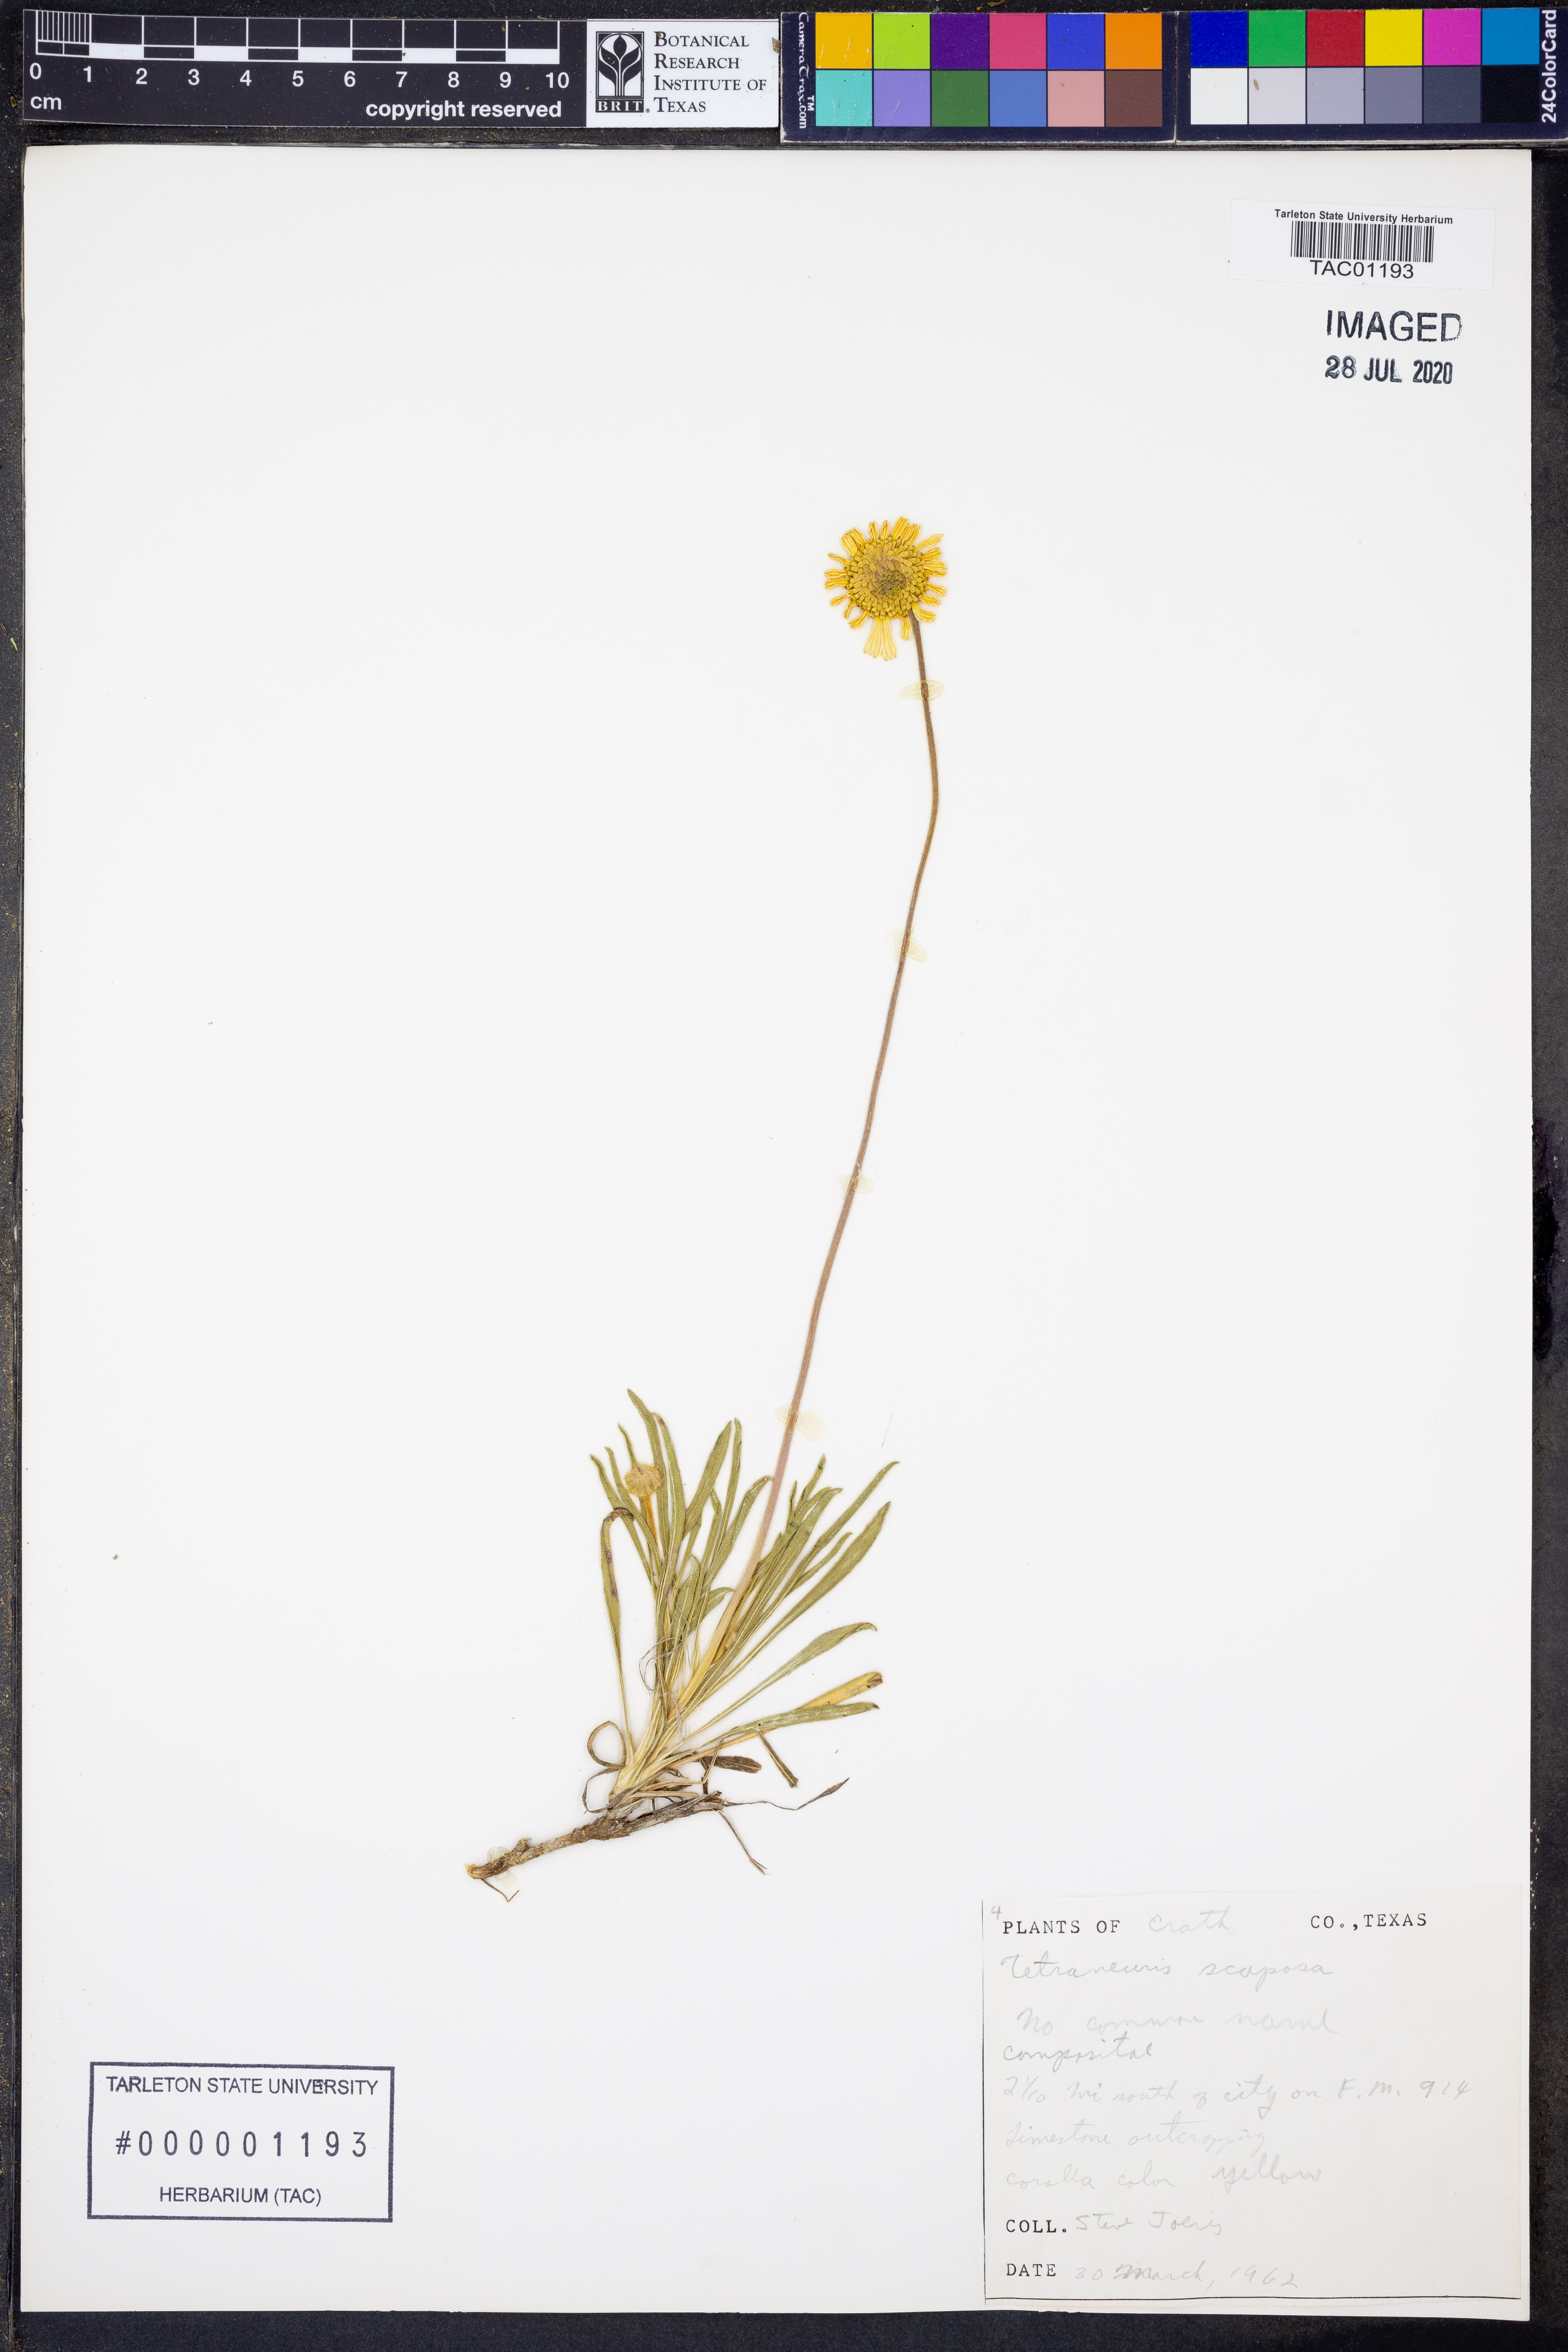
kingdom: Plantae
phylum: Tracheophyta
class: Magnoliopsida
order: Asterales
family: Asteraceae
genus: Tetraneuris
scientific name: Tetraneuris scaposa
